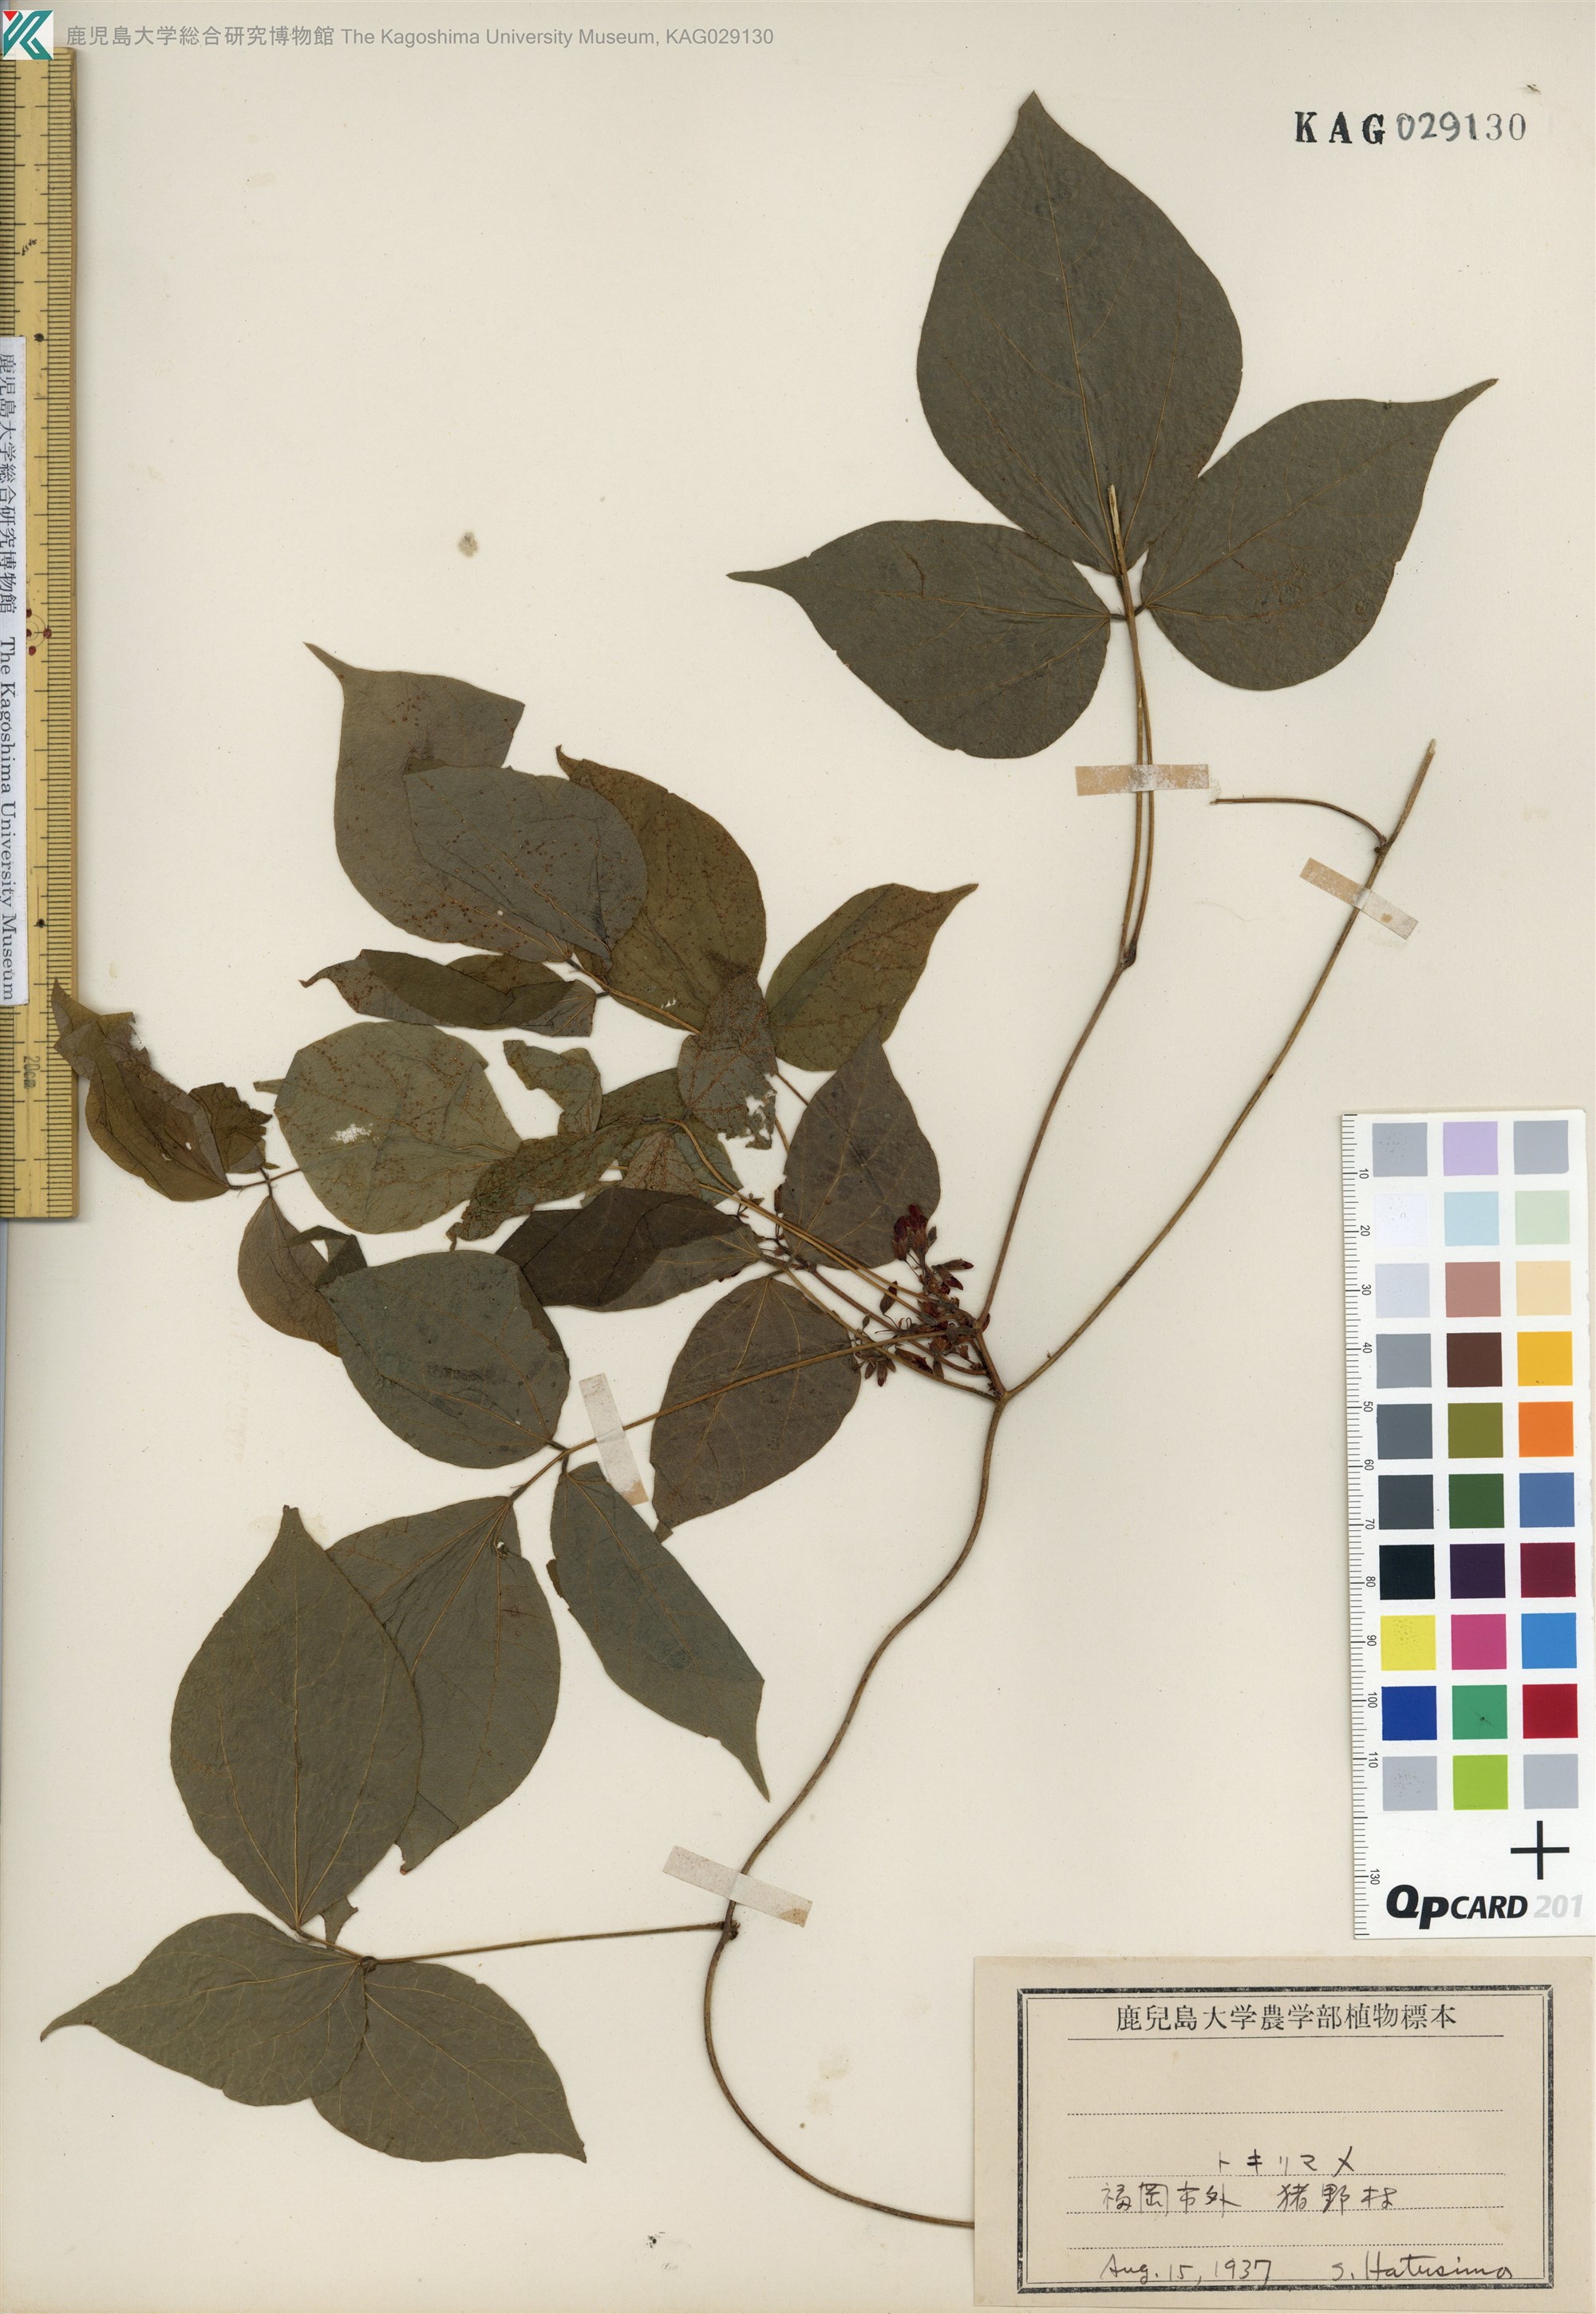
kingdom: Plantae
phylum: Tracheophyta
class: Magnoliopsida
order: Fabales
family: Fabaceae
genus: Rhynchosia
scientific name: Rhynchosia acuminatifolia
